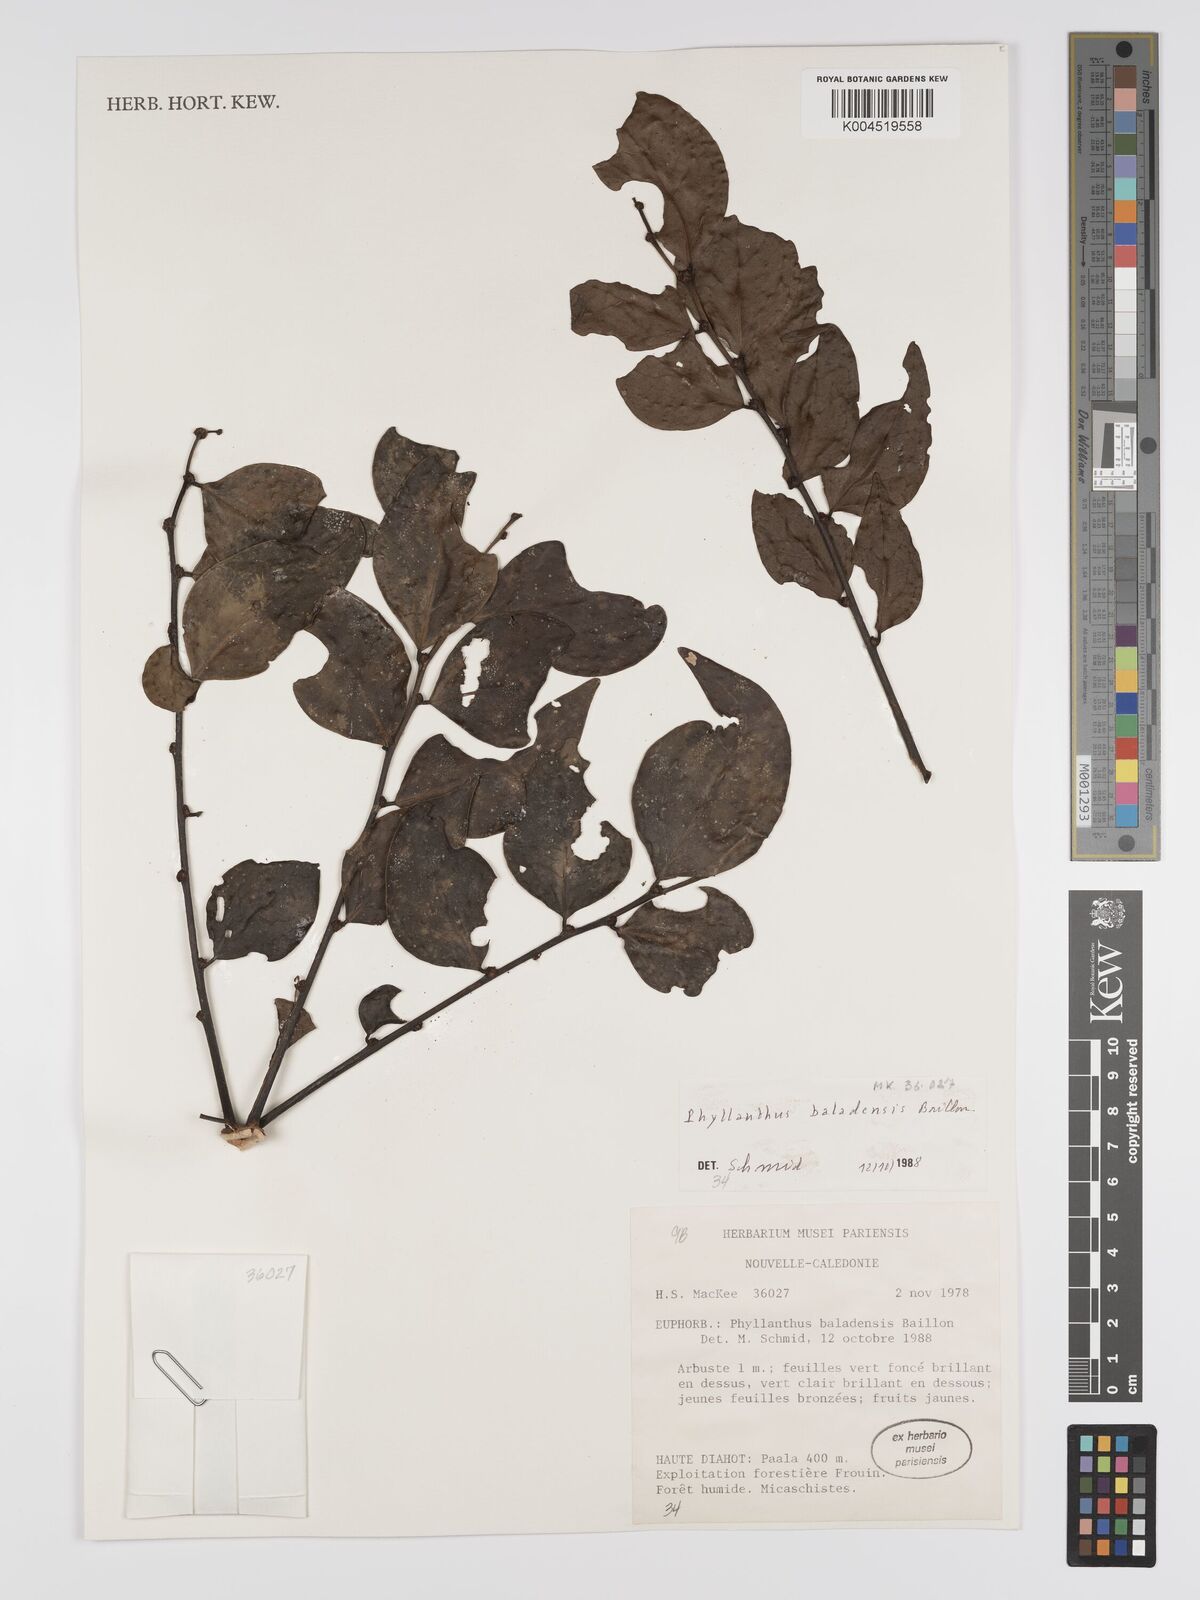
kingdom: Plantae
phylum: Tracheophyta
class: Magnoliopsida
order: Malpighiales
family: Phyllanthaceae
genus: Phyllanthus
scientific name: Phyllanthus baladensis
